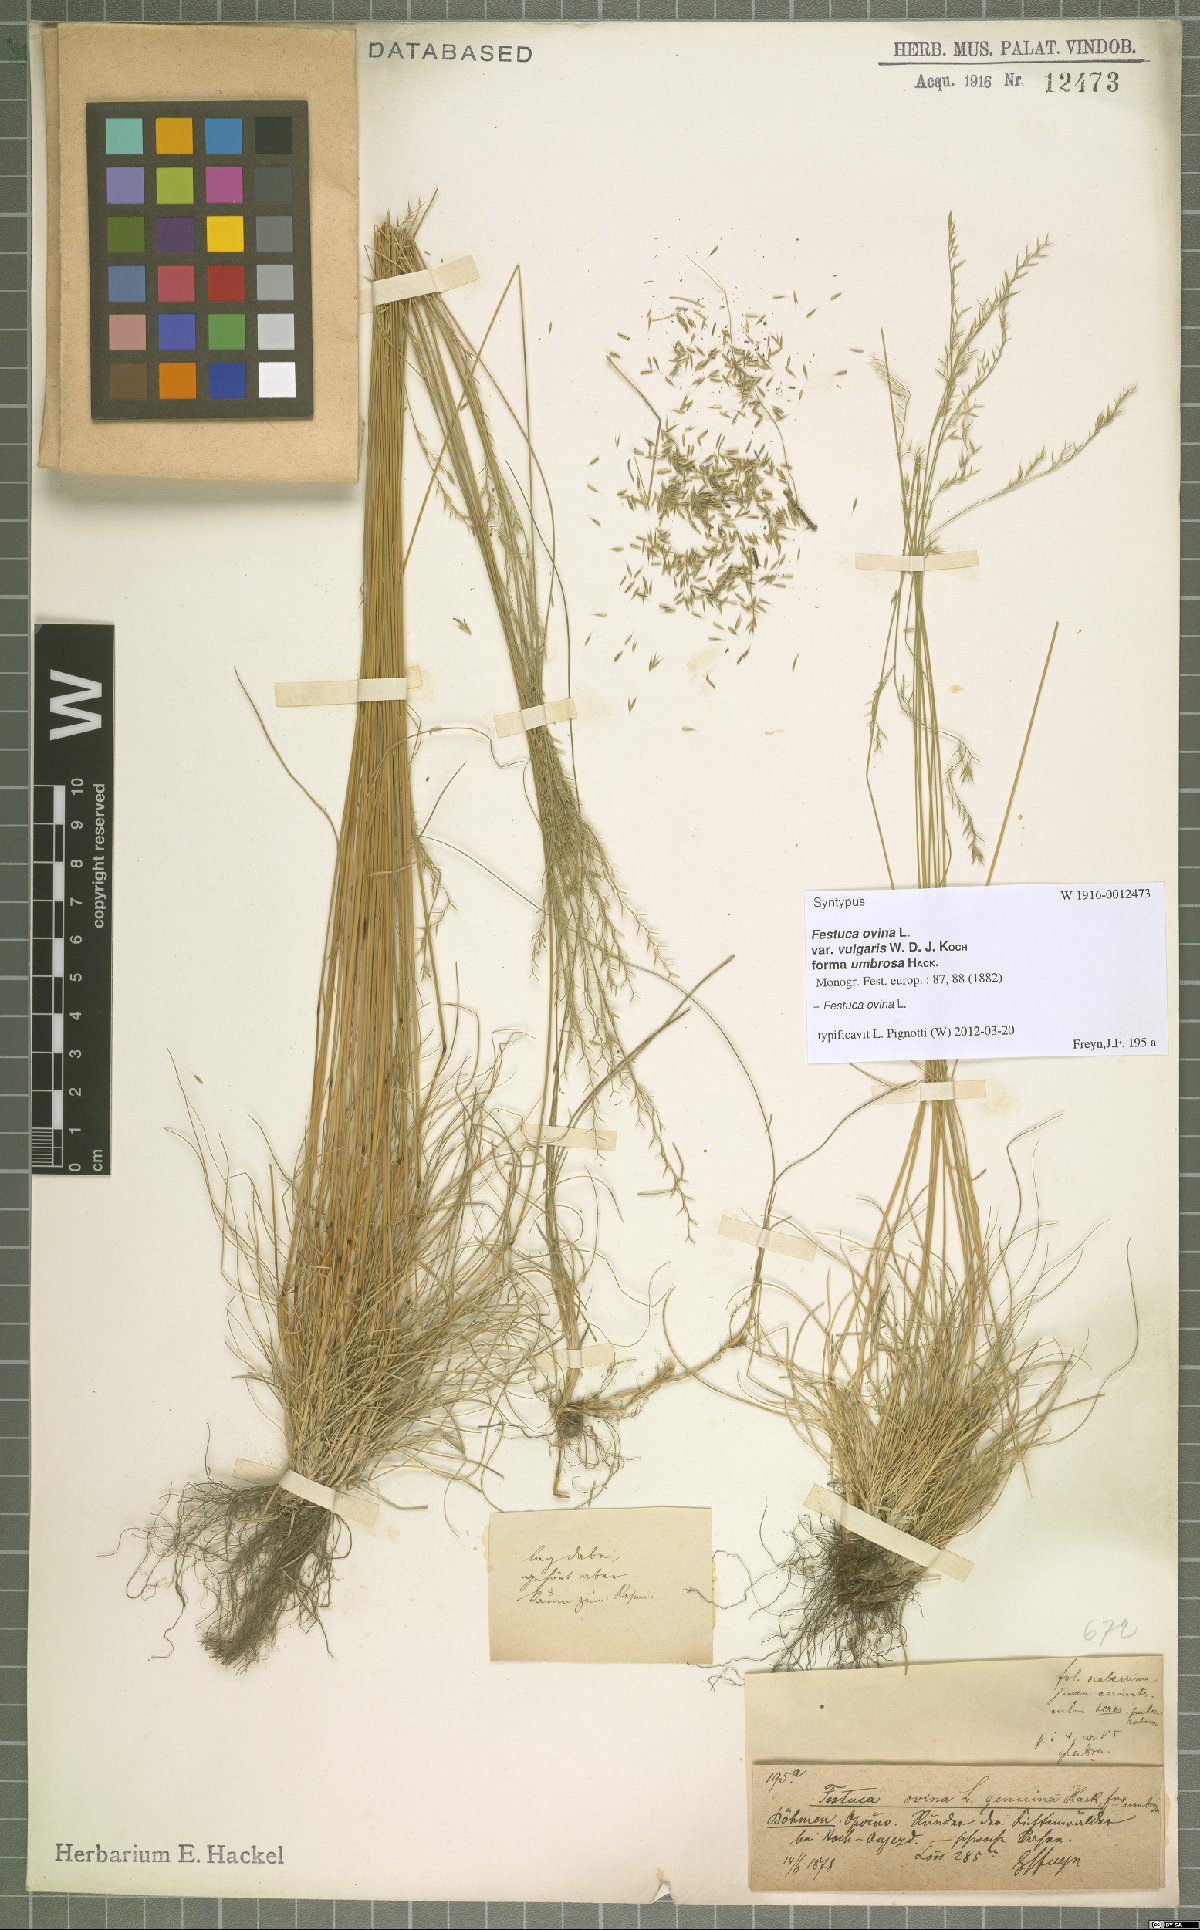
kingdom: Plantae
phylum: Tracheophyta
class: Liliopsida
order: Poales
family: Poaceae
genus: Festuca
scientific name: Festuca ovina
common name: Sheep fescue
